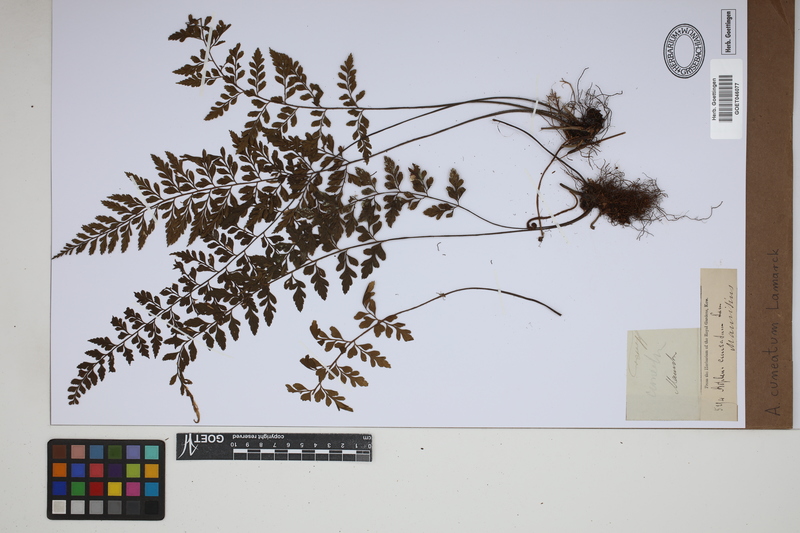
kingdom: Plantae
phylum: Tracheophyta
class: Polypodiopsida
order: Polypodiales
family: Aspleniaceae
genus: Asplenium
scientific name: Asplenium cuneatum
